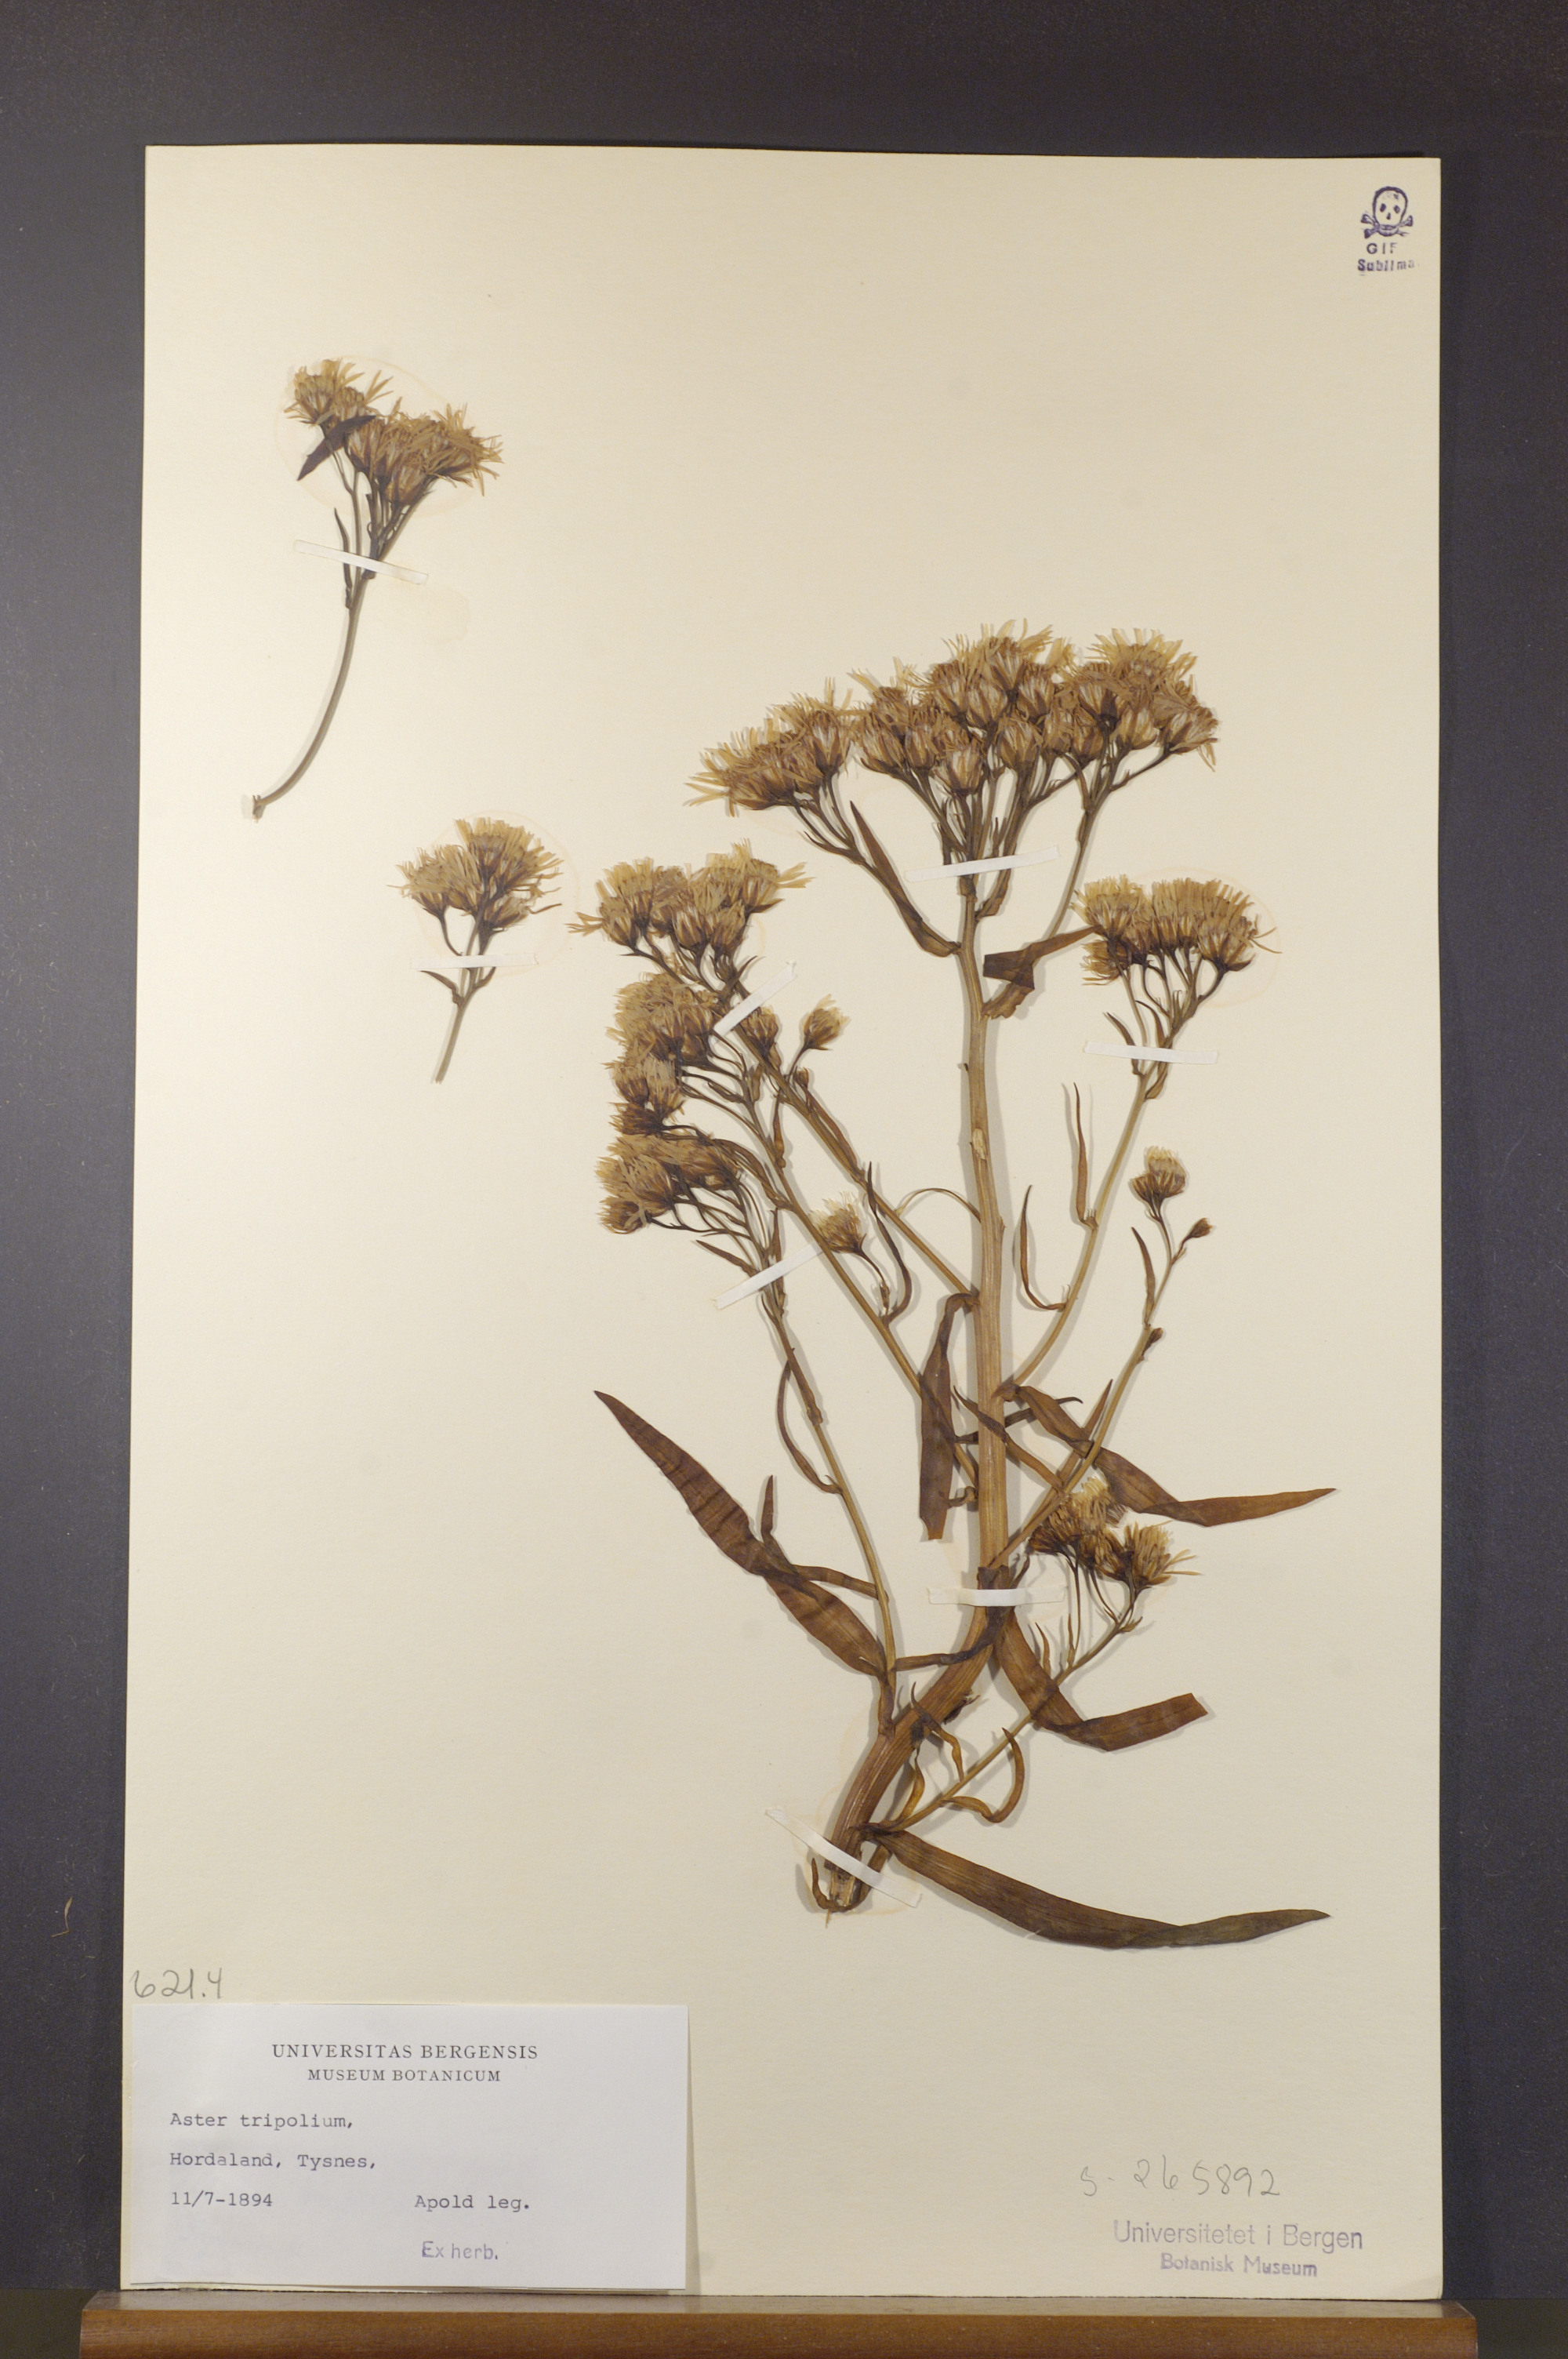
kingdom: Plantae
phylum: Tracheophyta
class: Magnoliopsida
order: Asterales
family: Asteraceae
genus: Tripolium
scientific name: Tripolium pannonicum
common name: Sea aster
